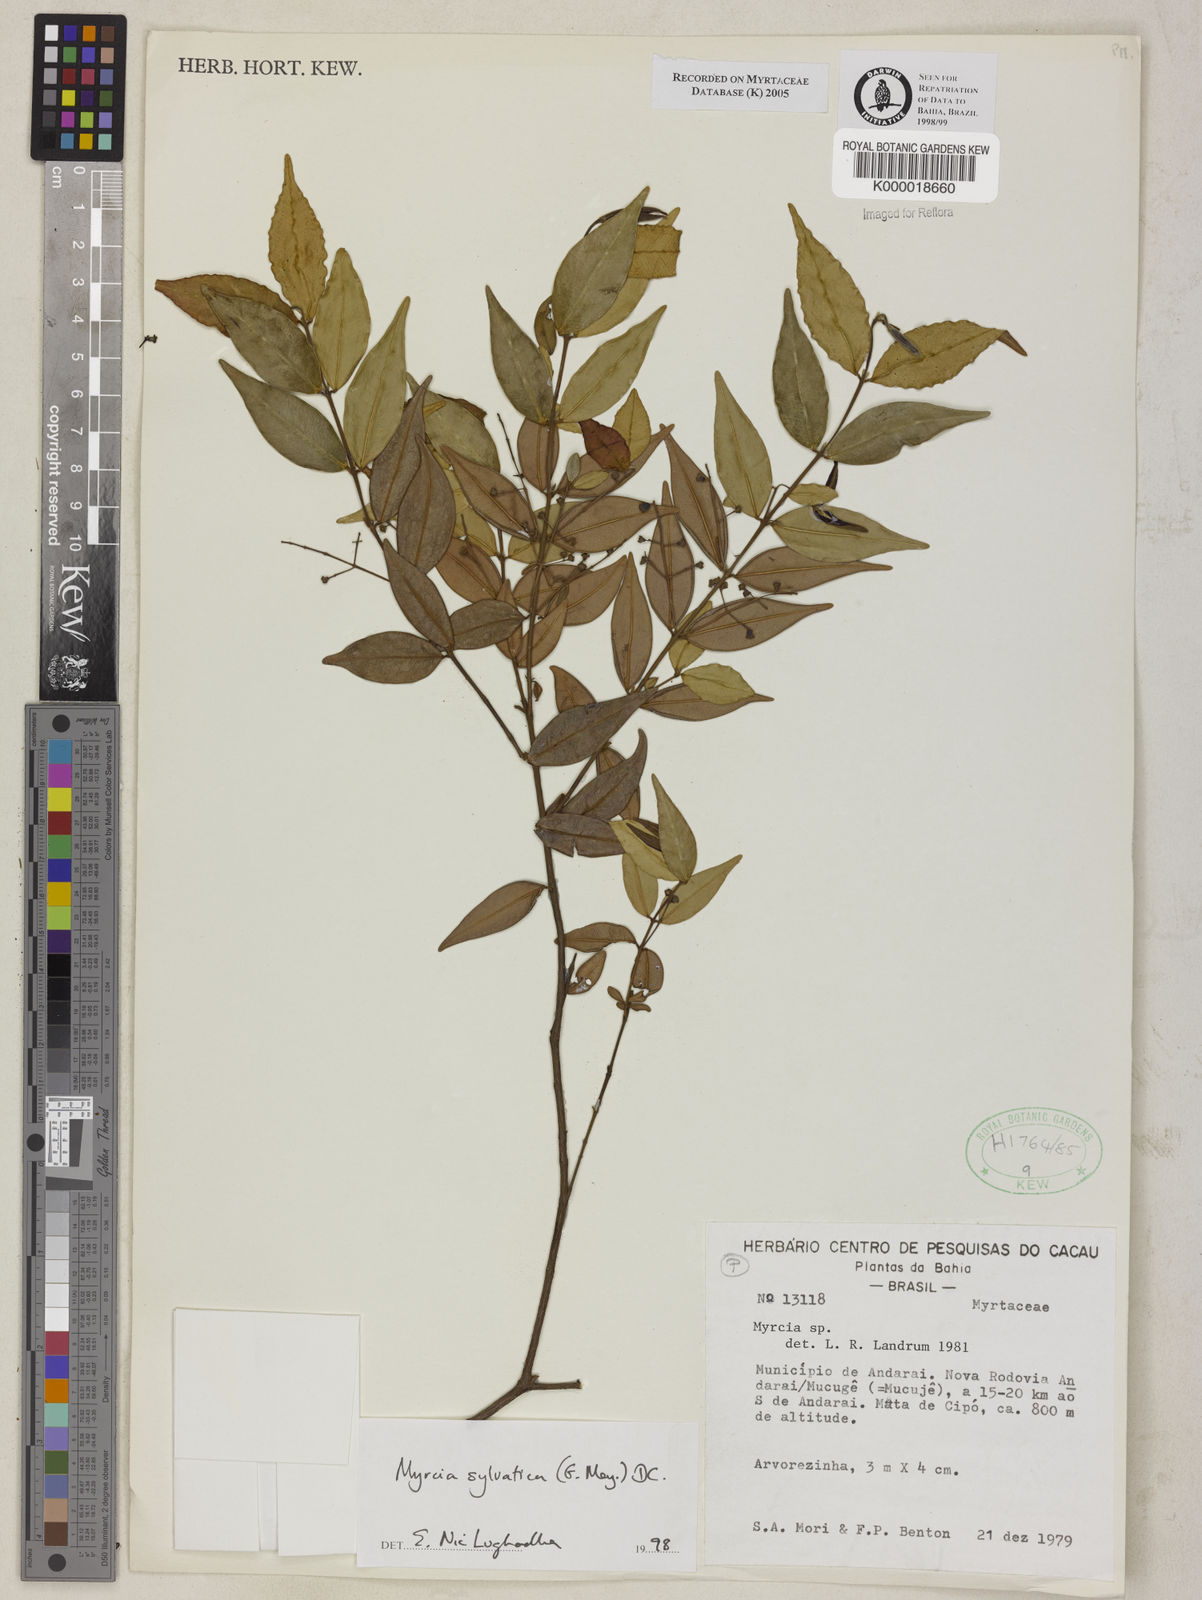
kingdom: Plantae
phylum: Tracheophyta
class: Magnoliopsida
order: Myrtales
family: Myrtaceae
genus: Myrcia
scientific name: Myrcia sylvatica
